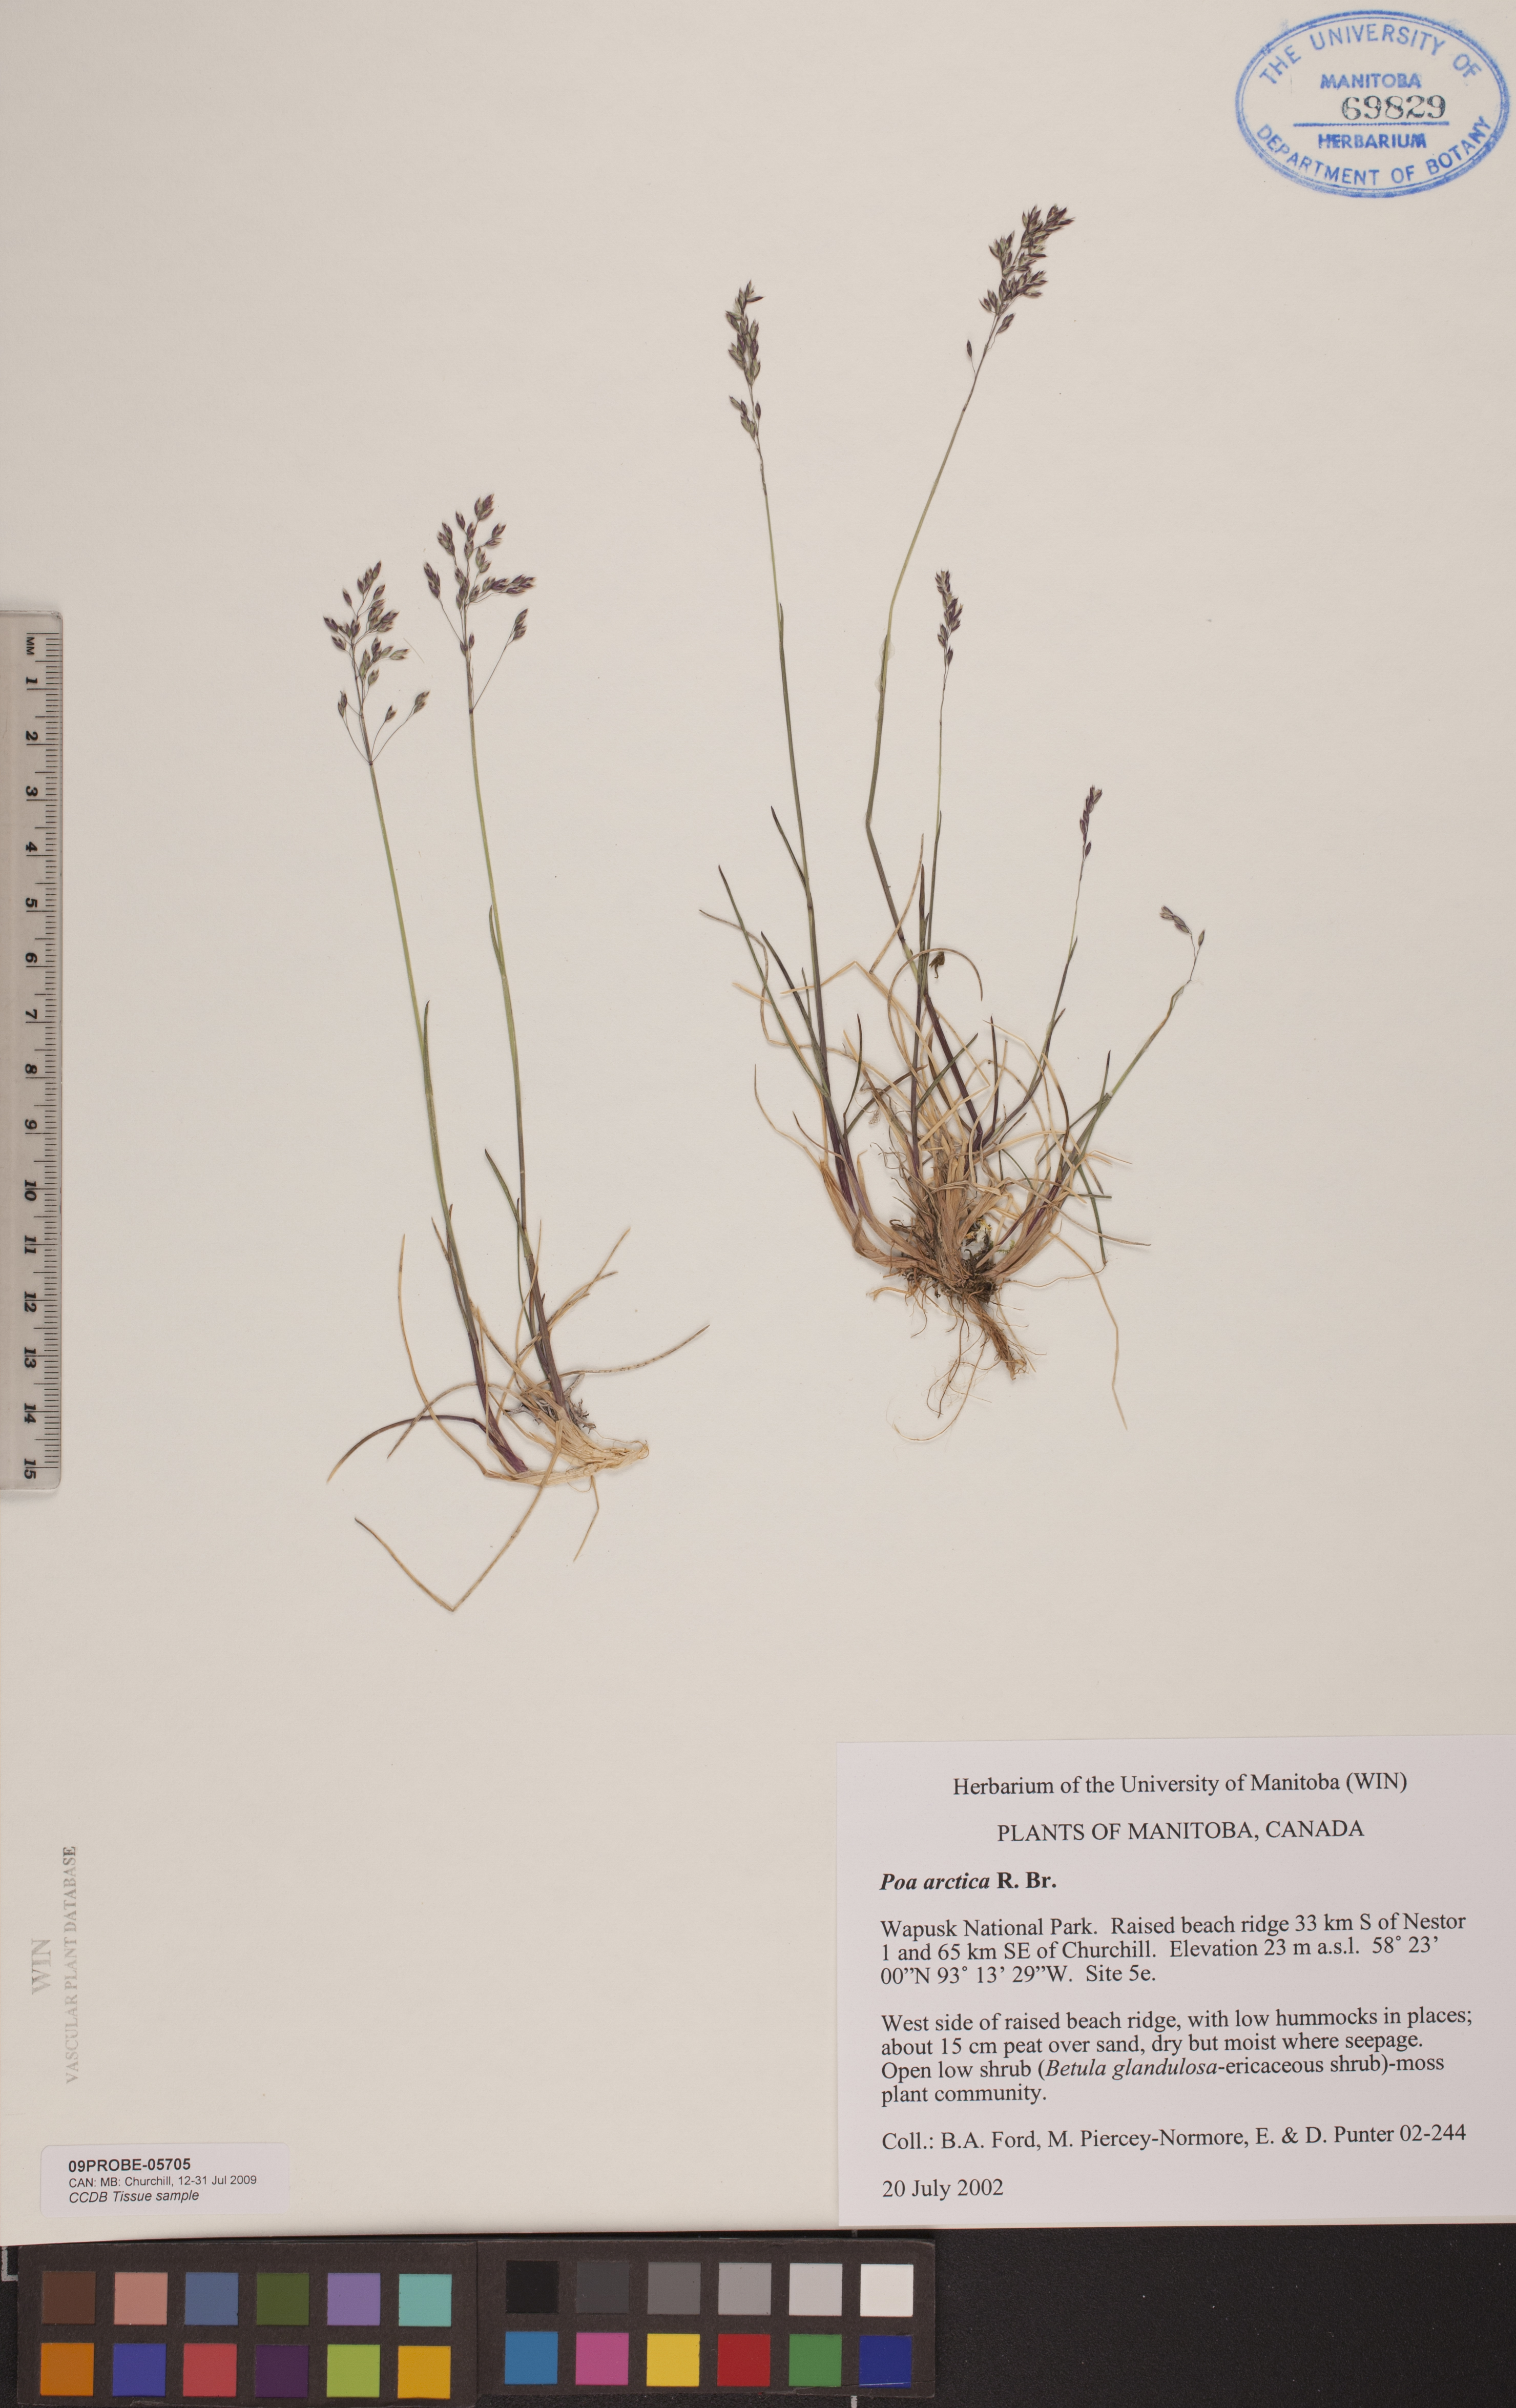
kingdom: Plantae
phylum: Tracheophyta
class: Liliopsida
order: Poales
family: Poaceae
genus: Poa
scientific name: Poa arctica
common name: Arctic bluegrass
